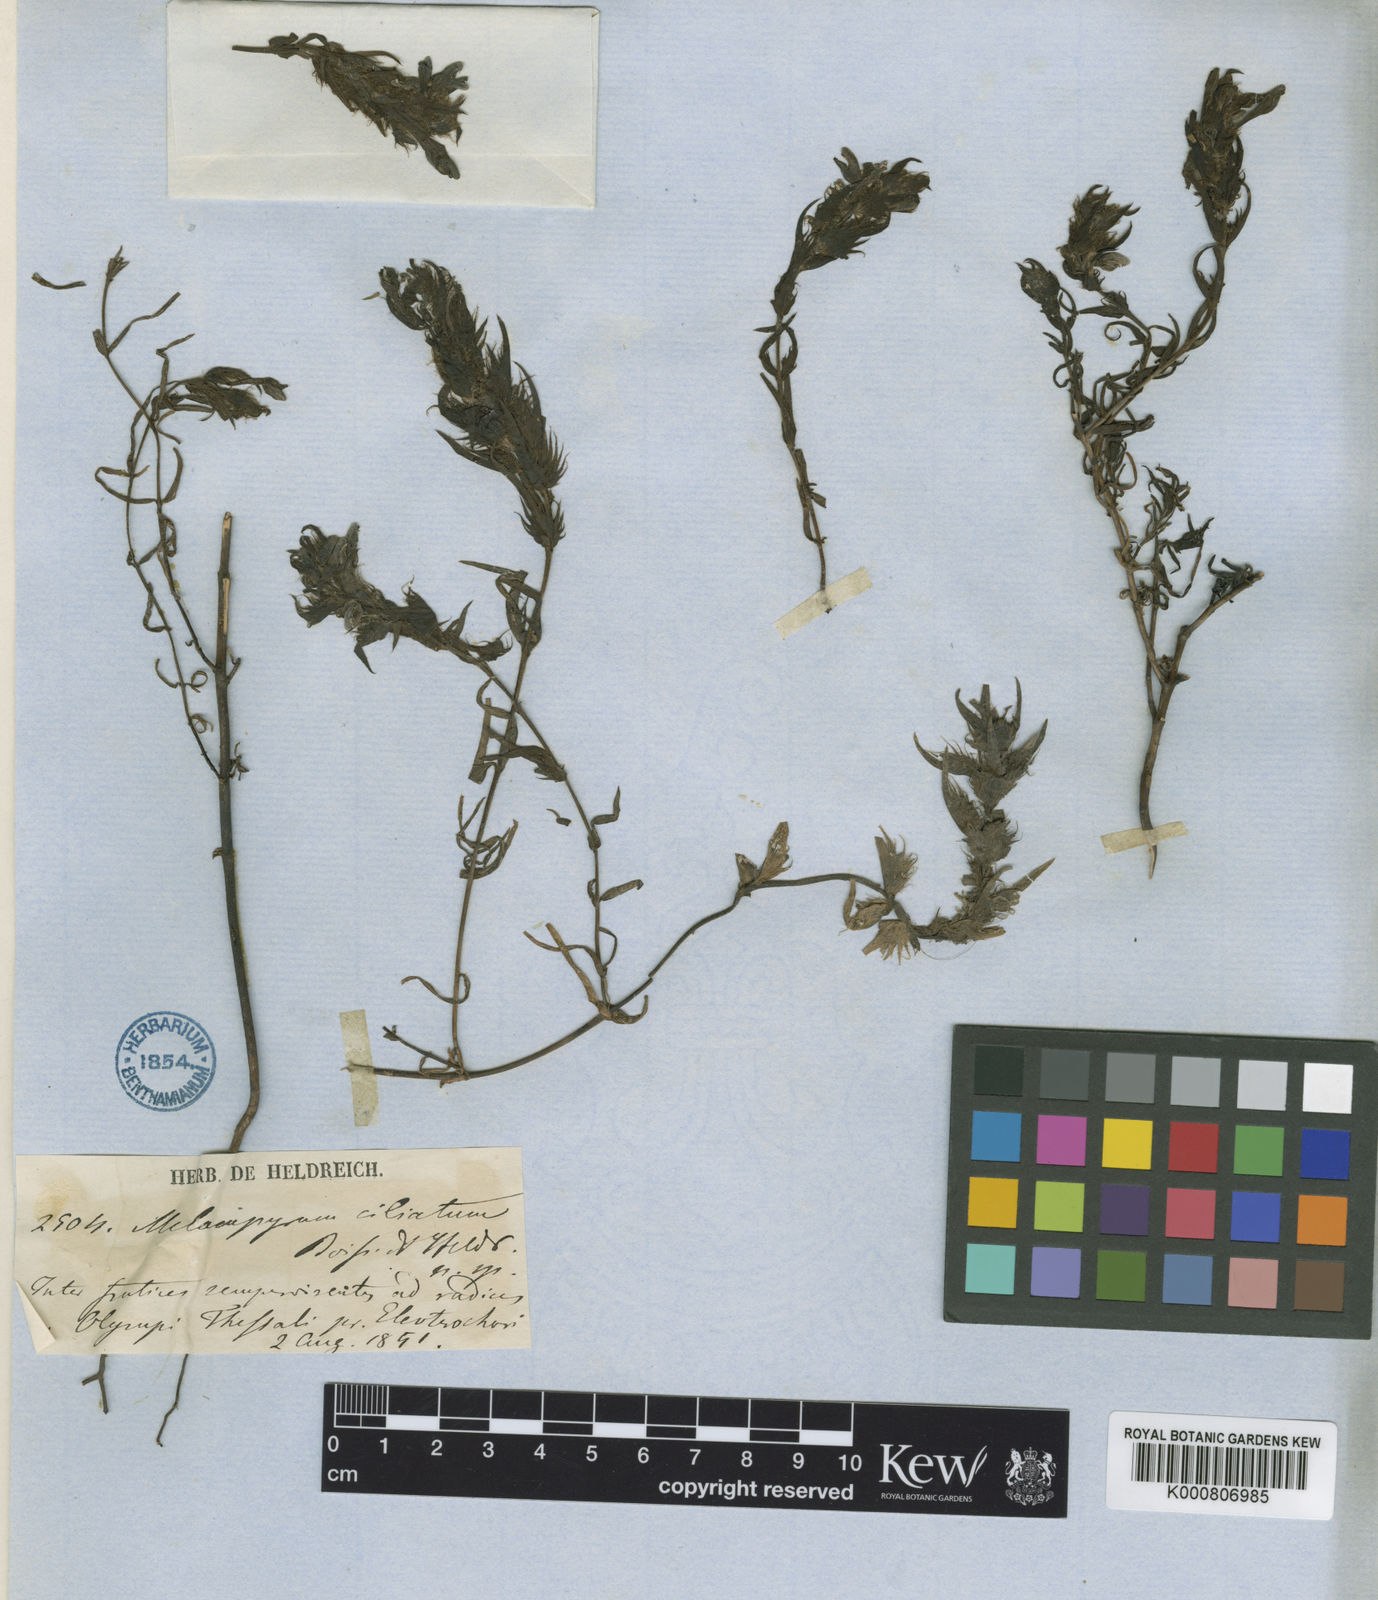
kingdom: Plantae
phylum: Tracheophyta
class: Magnoliopsida
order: Lamiales
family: Orobanchaceae
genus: Melampyrum
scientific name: Melampyrum ciliatum
